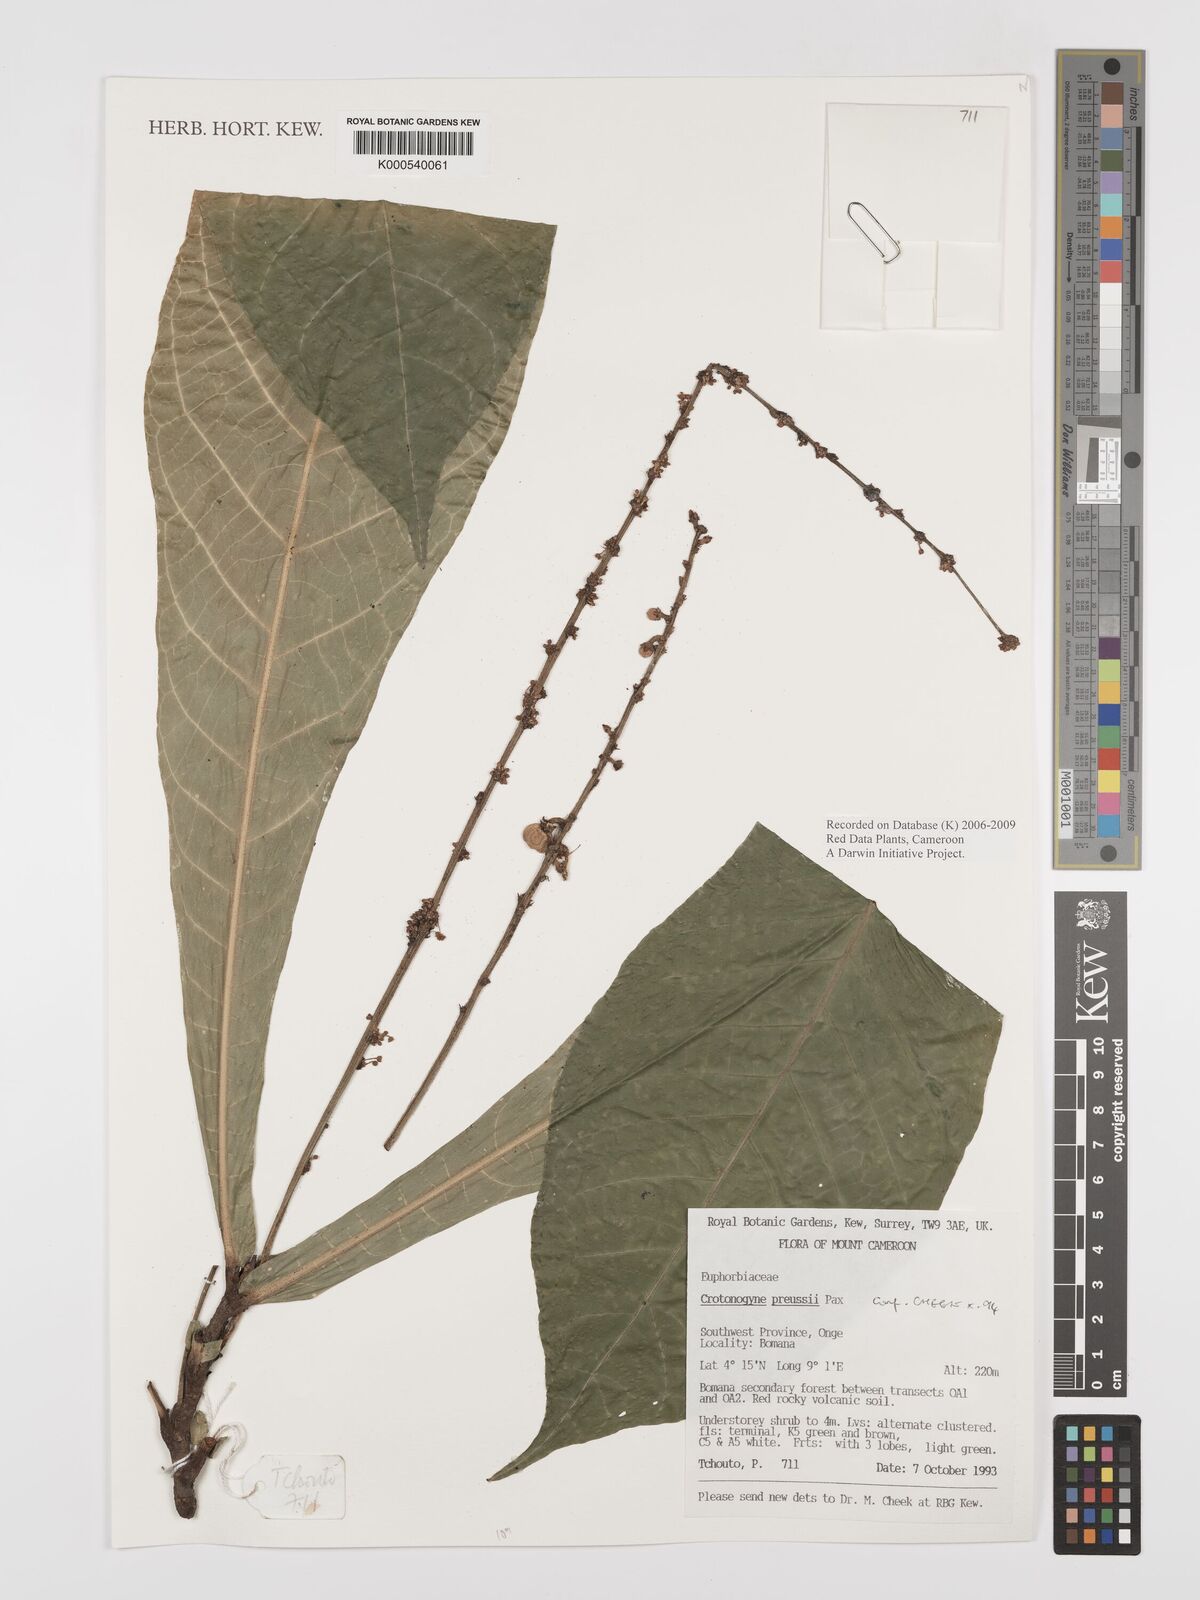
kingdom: Plantae
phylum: Tracheophyta
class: Magnoliopsida
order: Malpighiales
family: Euphorbiaceae
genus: Crotonogyne
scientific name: Crotonogyne preussii
